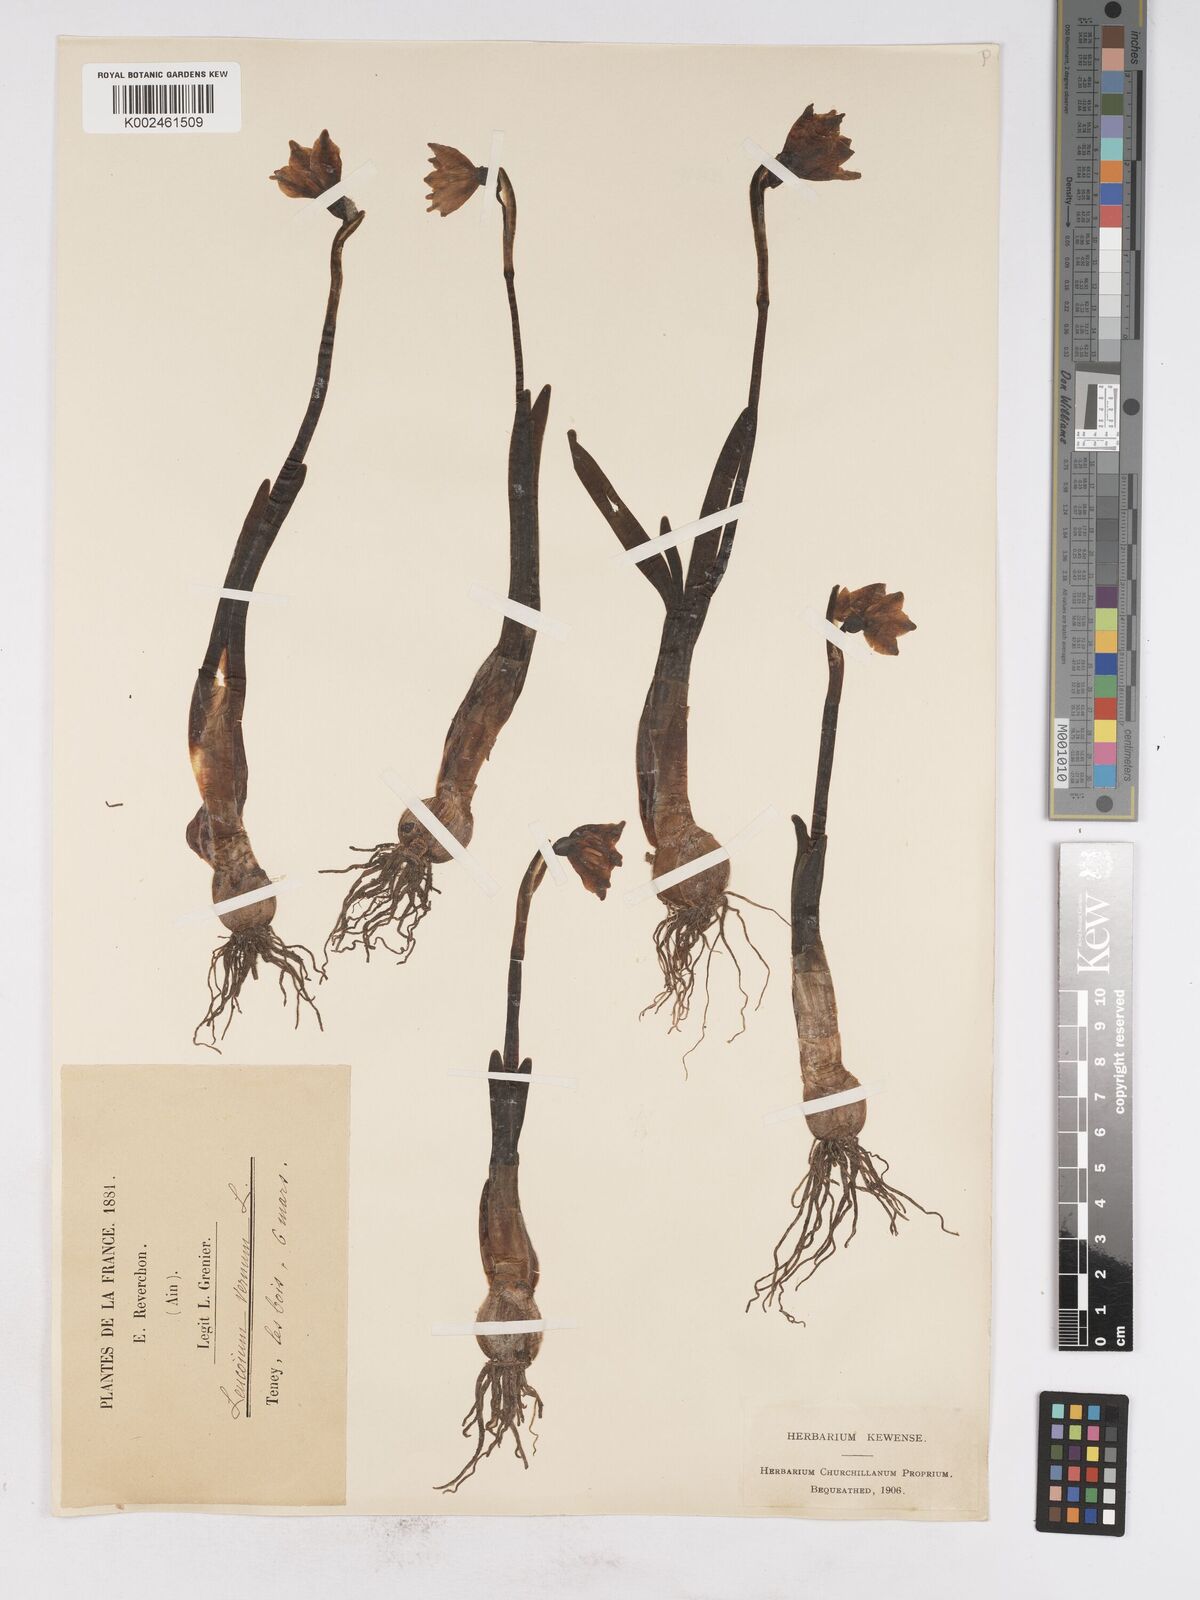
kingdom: Plantae
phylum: Tracheophyta
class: Liliopsida
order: Asparagales
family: Amaryllidaceae
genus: Leucojum
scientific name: Leucojum vernum
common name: Spring snowflake
